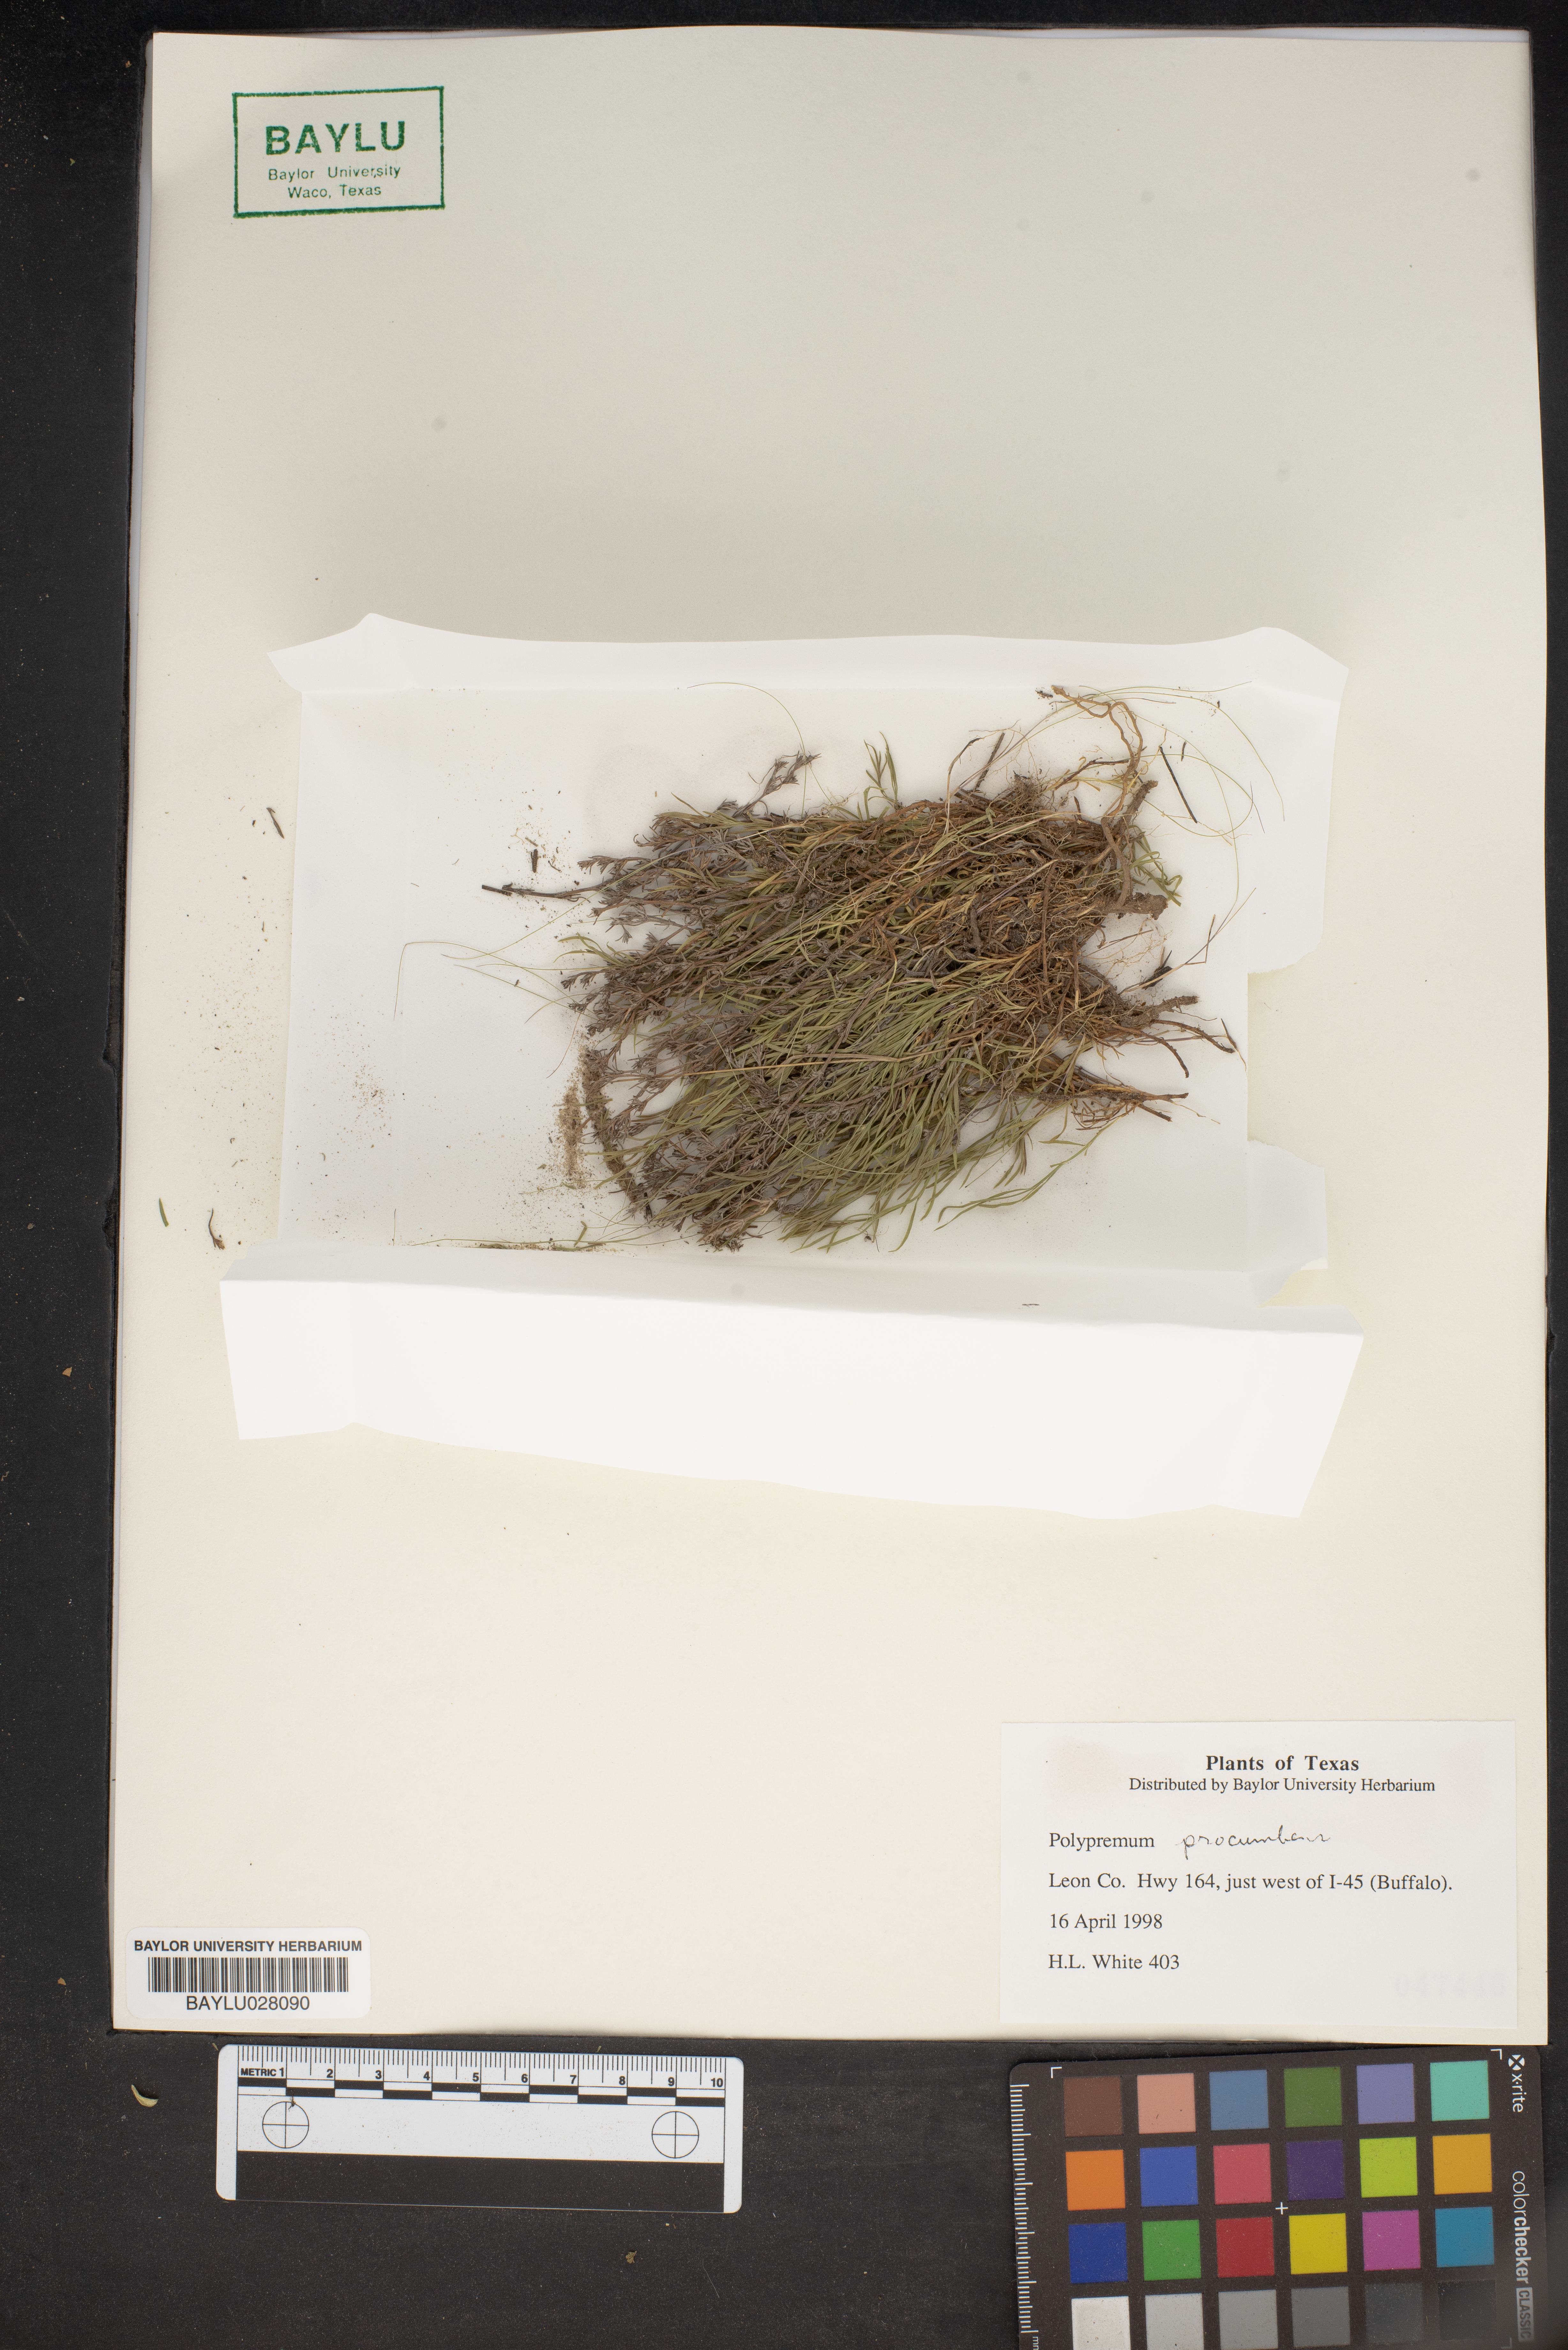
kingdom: Plantae
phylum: Tracheophyta
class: Magnoliopsida
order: Lamiales
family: Tetrachondraceae
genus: Polypremum
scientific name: Polypremum procumbens
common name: Juniper-leaf
